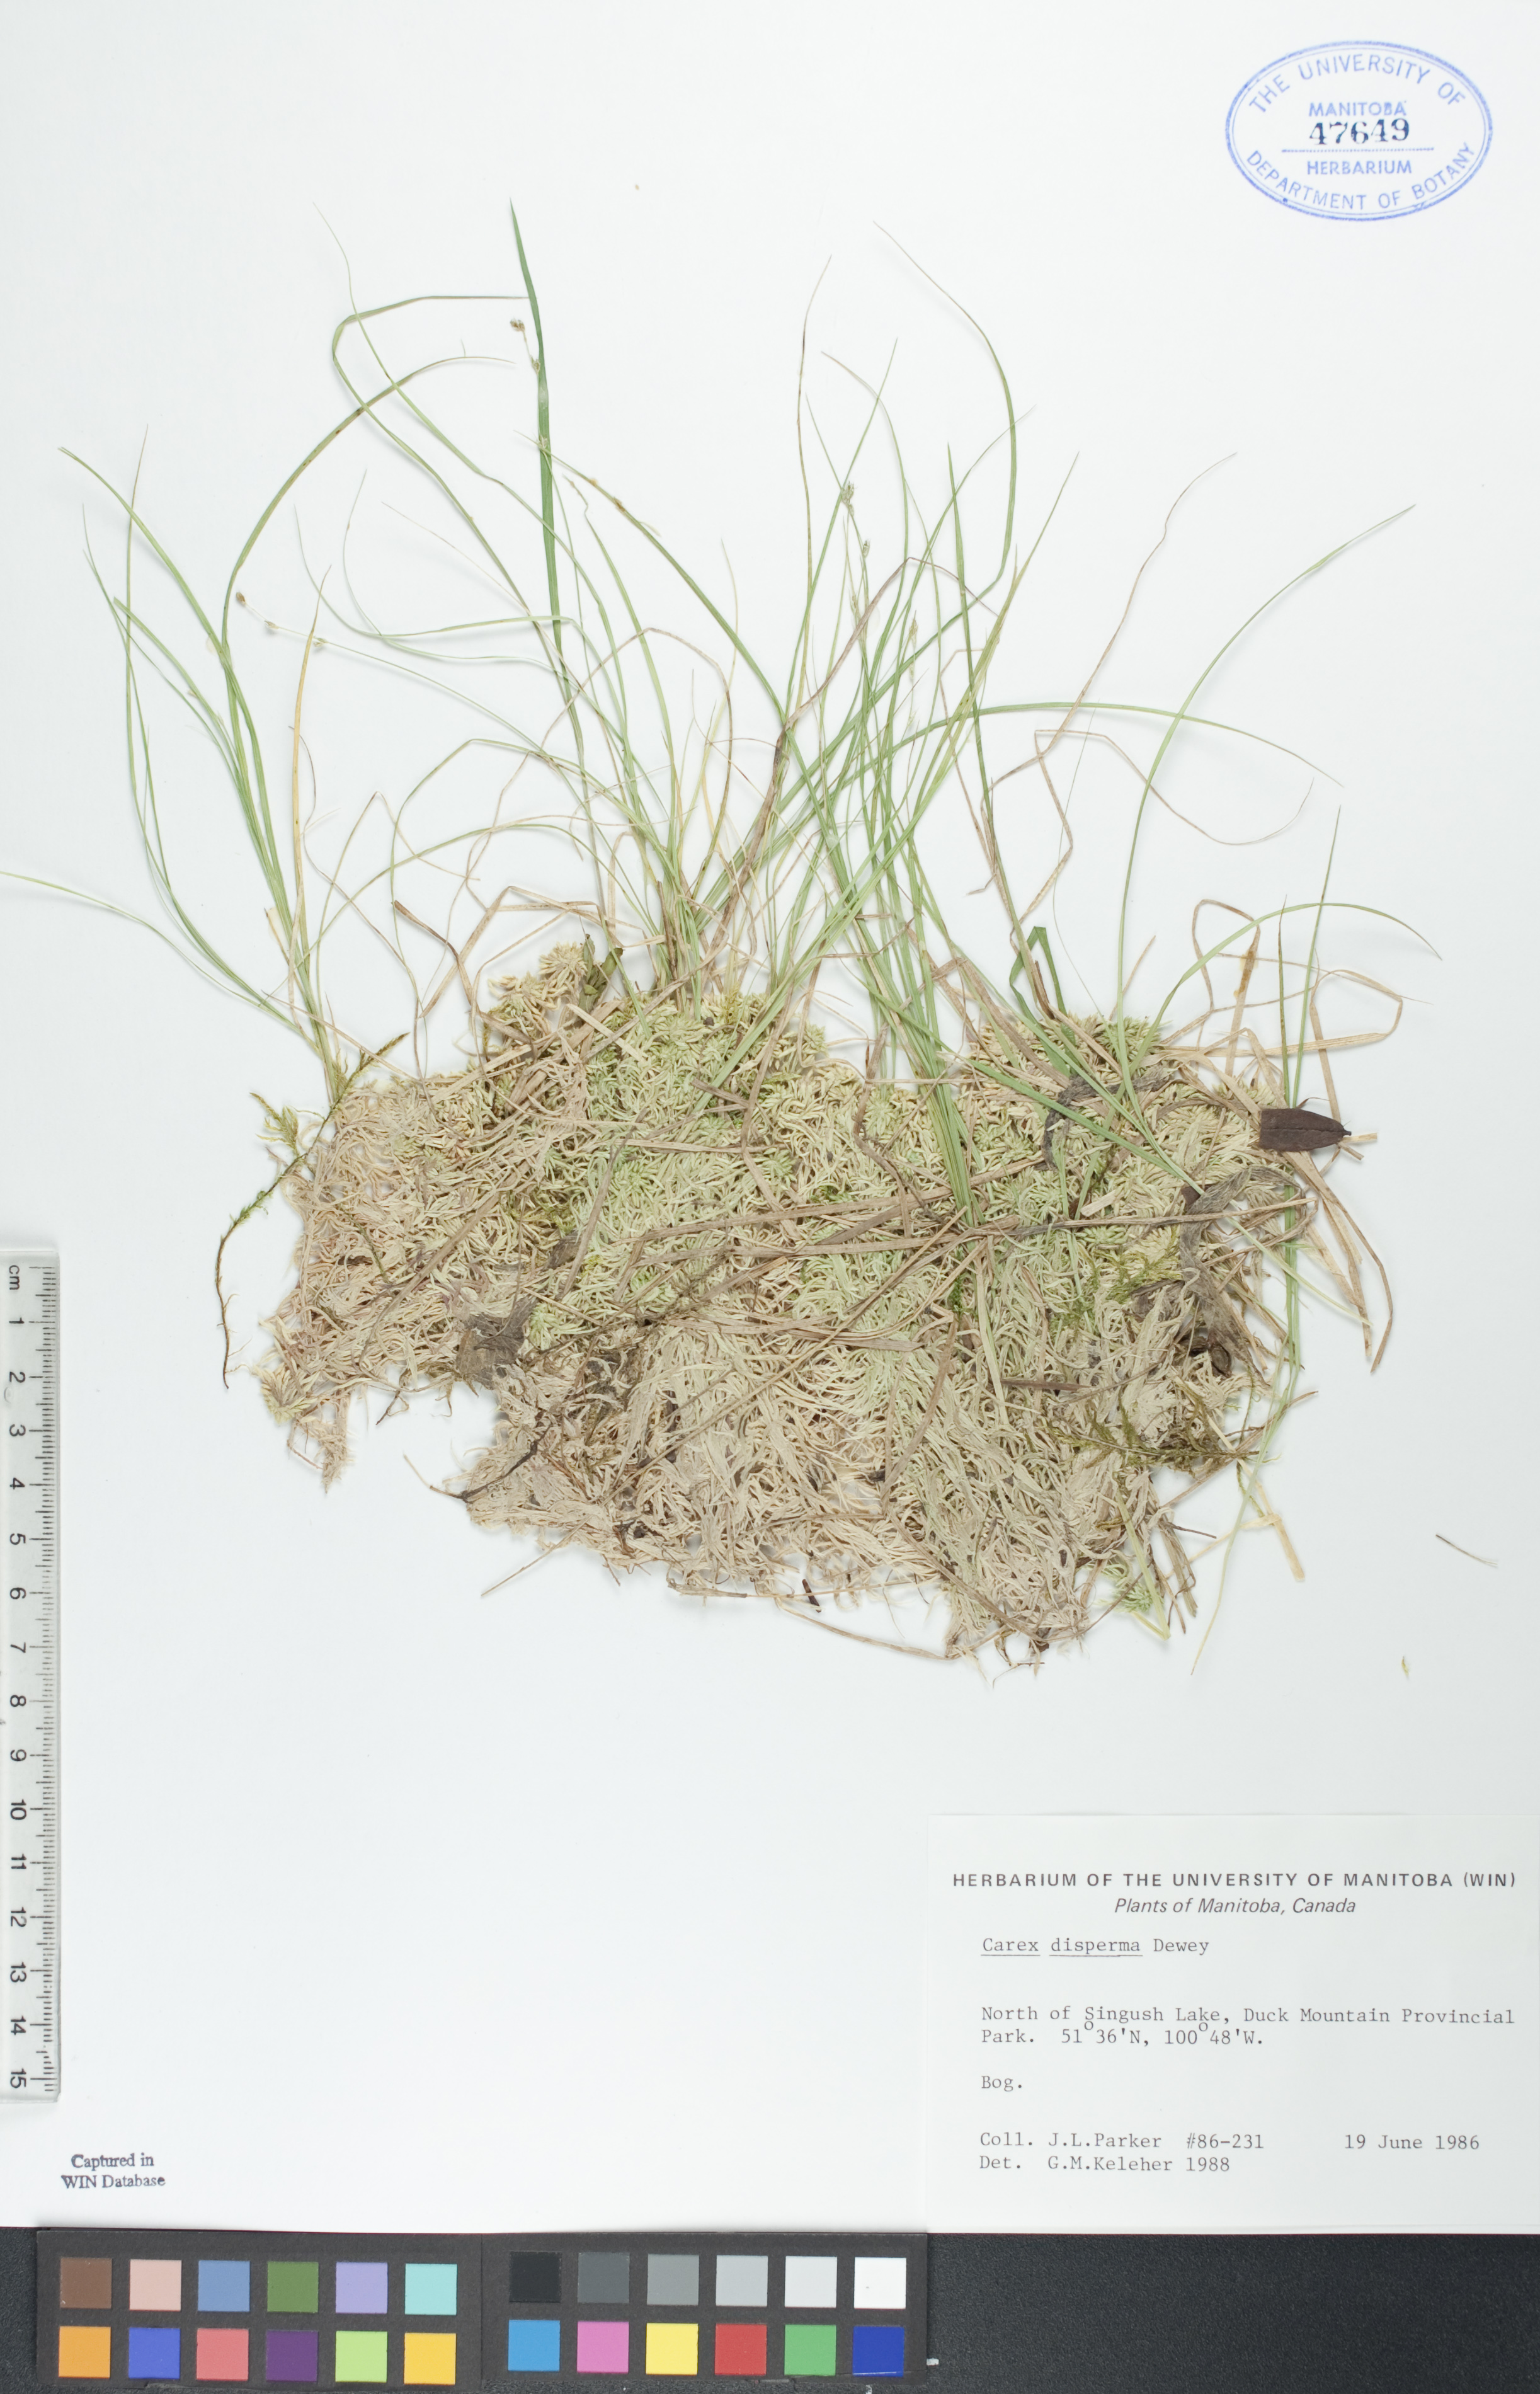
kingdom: Plantae
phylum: Tracheophyta
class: Liliopsida
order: Poales
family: Cyperaceae
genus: Carex
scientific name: Carex disperma
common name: Short-leaved sedge
